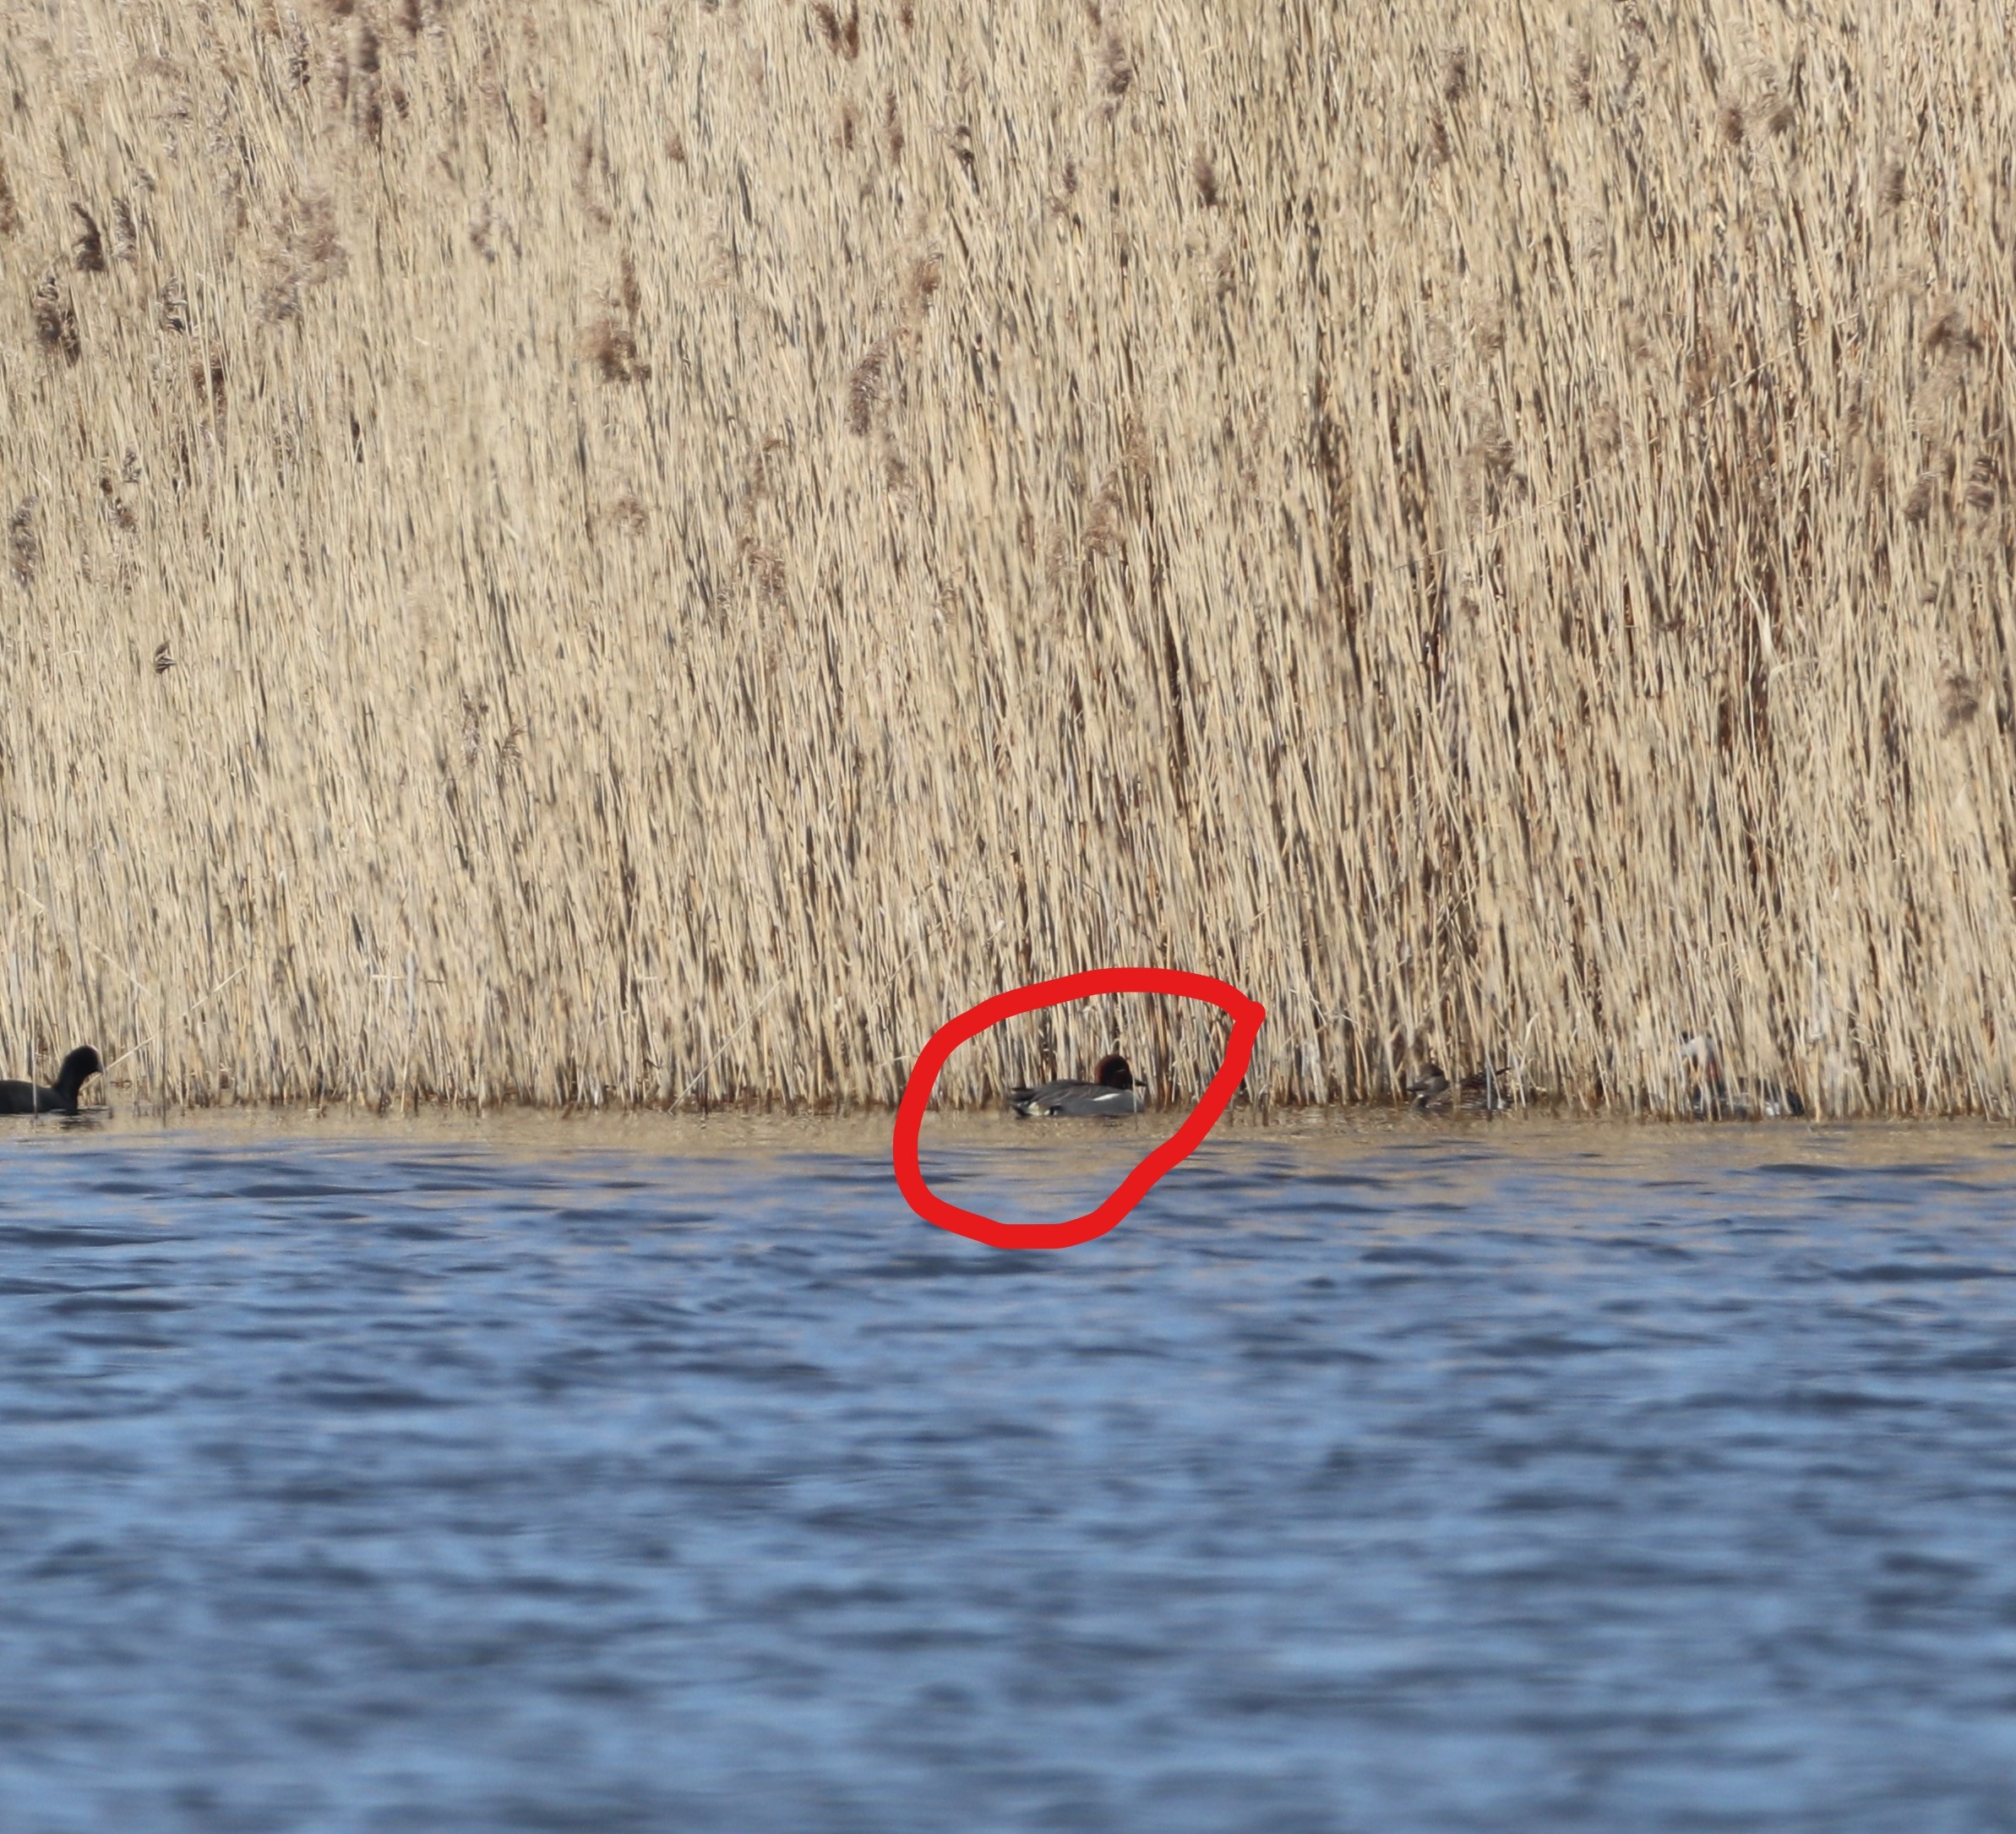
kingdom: Animalia
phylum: Chordata
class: Aves
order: Anseriformes
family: Anatidae
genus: Anas
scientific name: Anas crecca
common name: Krikand
